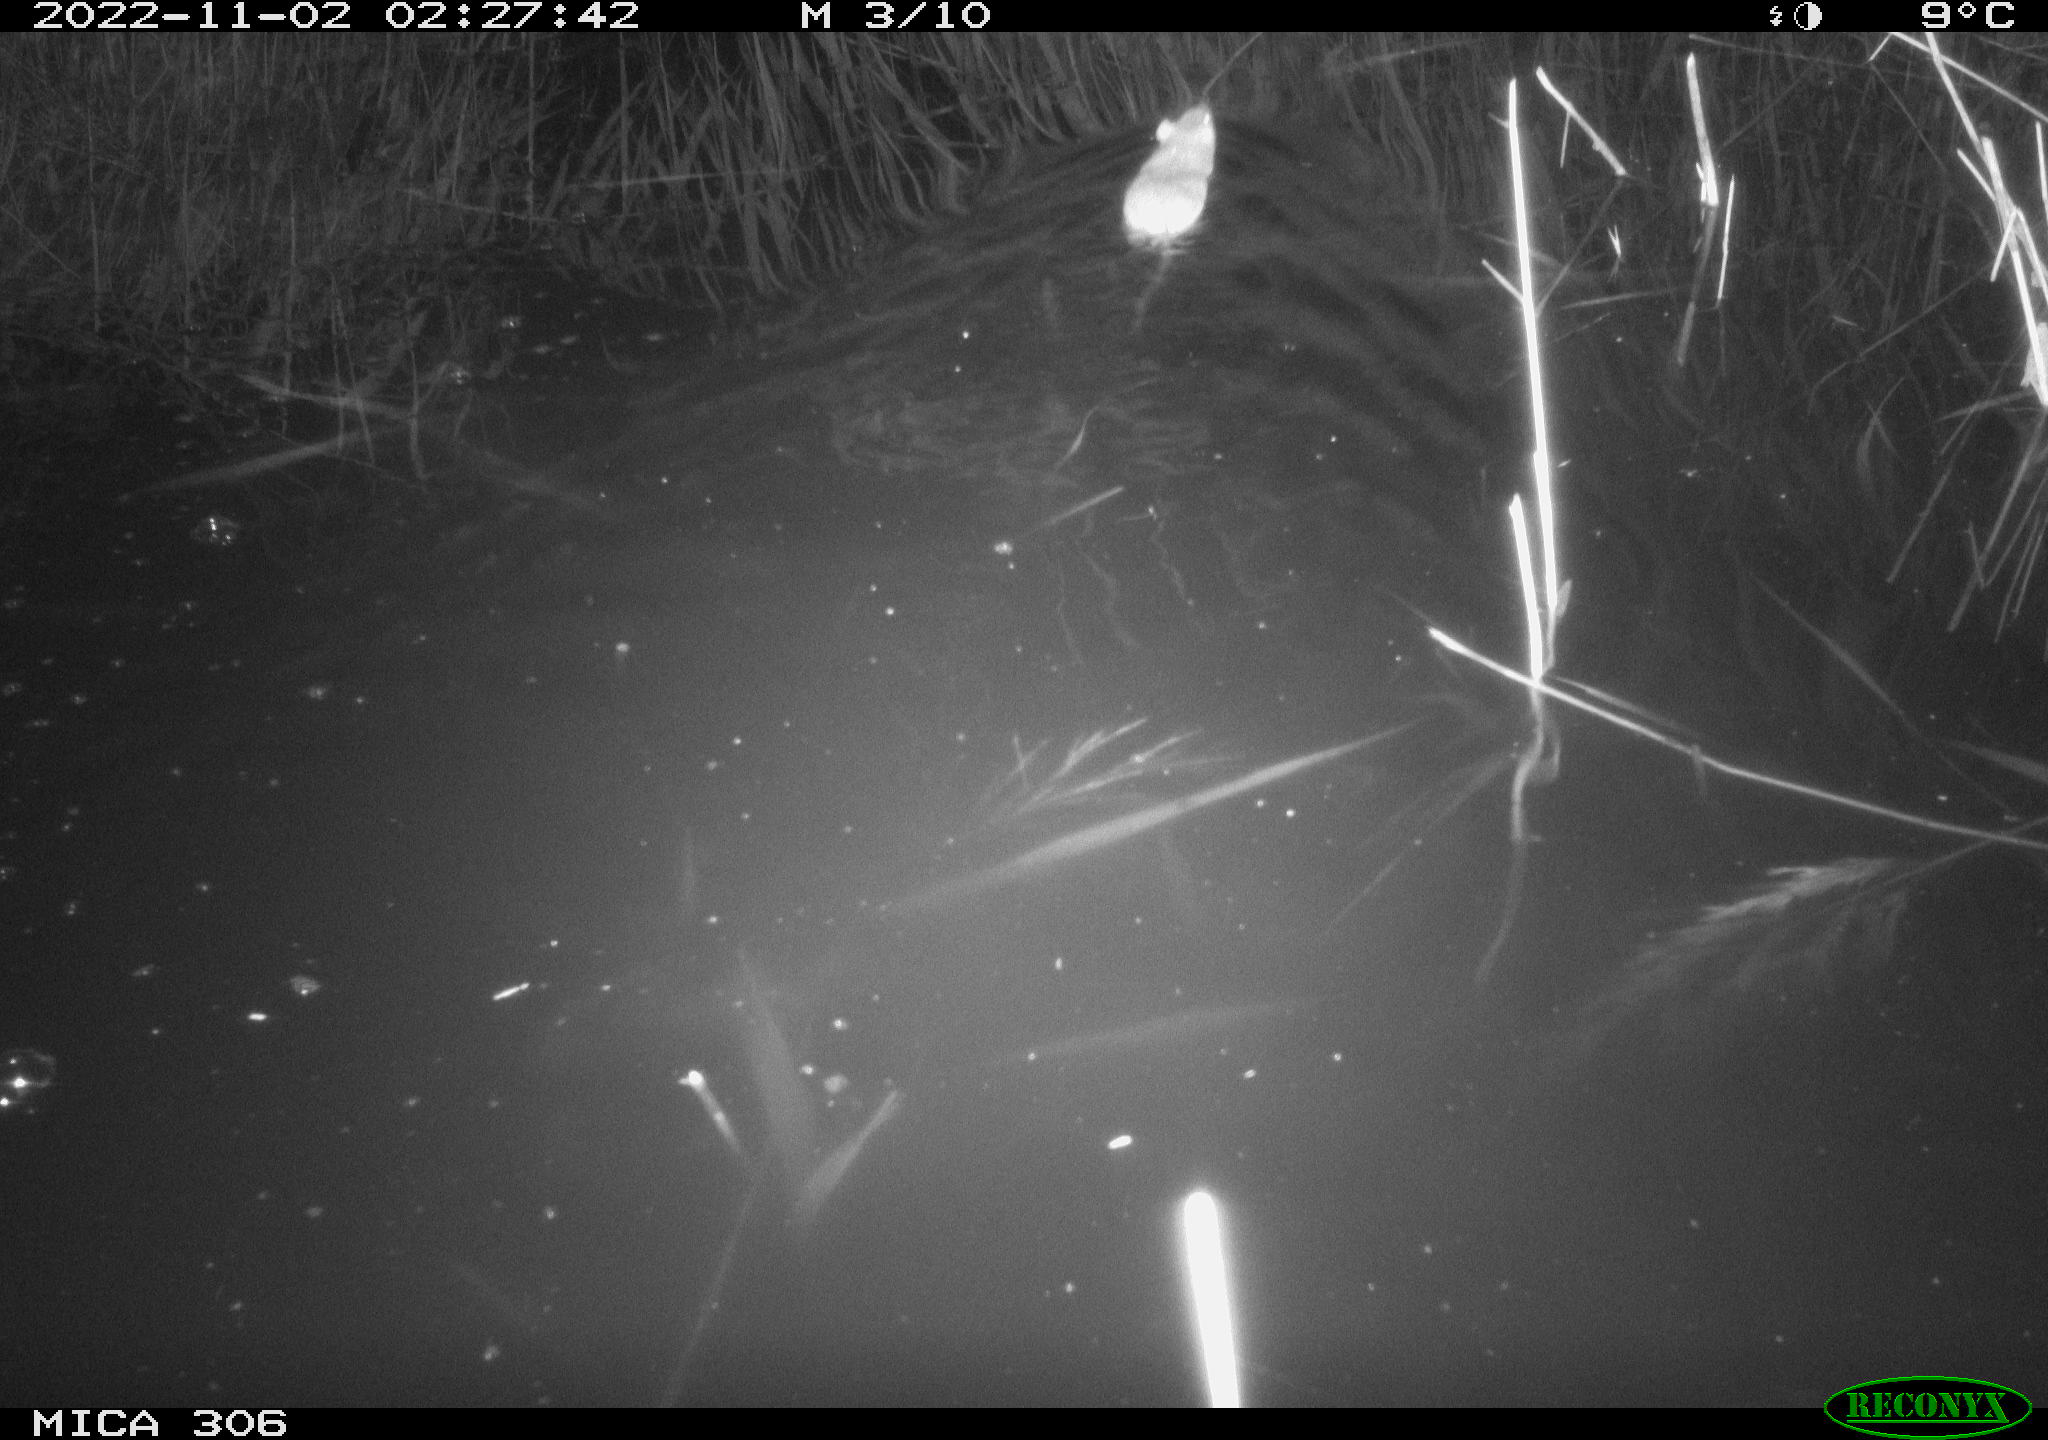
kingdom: Animalia
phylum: Chordata
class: Mammalia
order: Rodentia
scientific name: Rodentia
